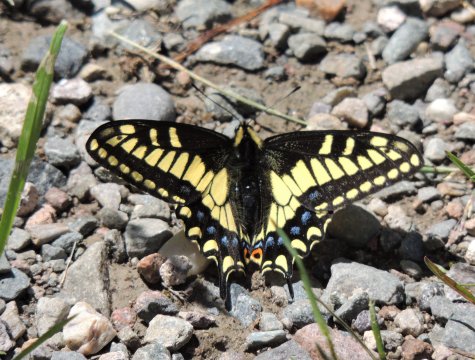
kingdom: Animalia
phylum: Arthropoda
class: Insecta
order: Lepidoptera
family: Papilionidae
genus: Papilio
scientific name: Papilio zelicaon
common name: Anise Swallowtail
